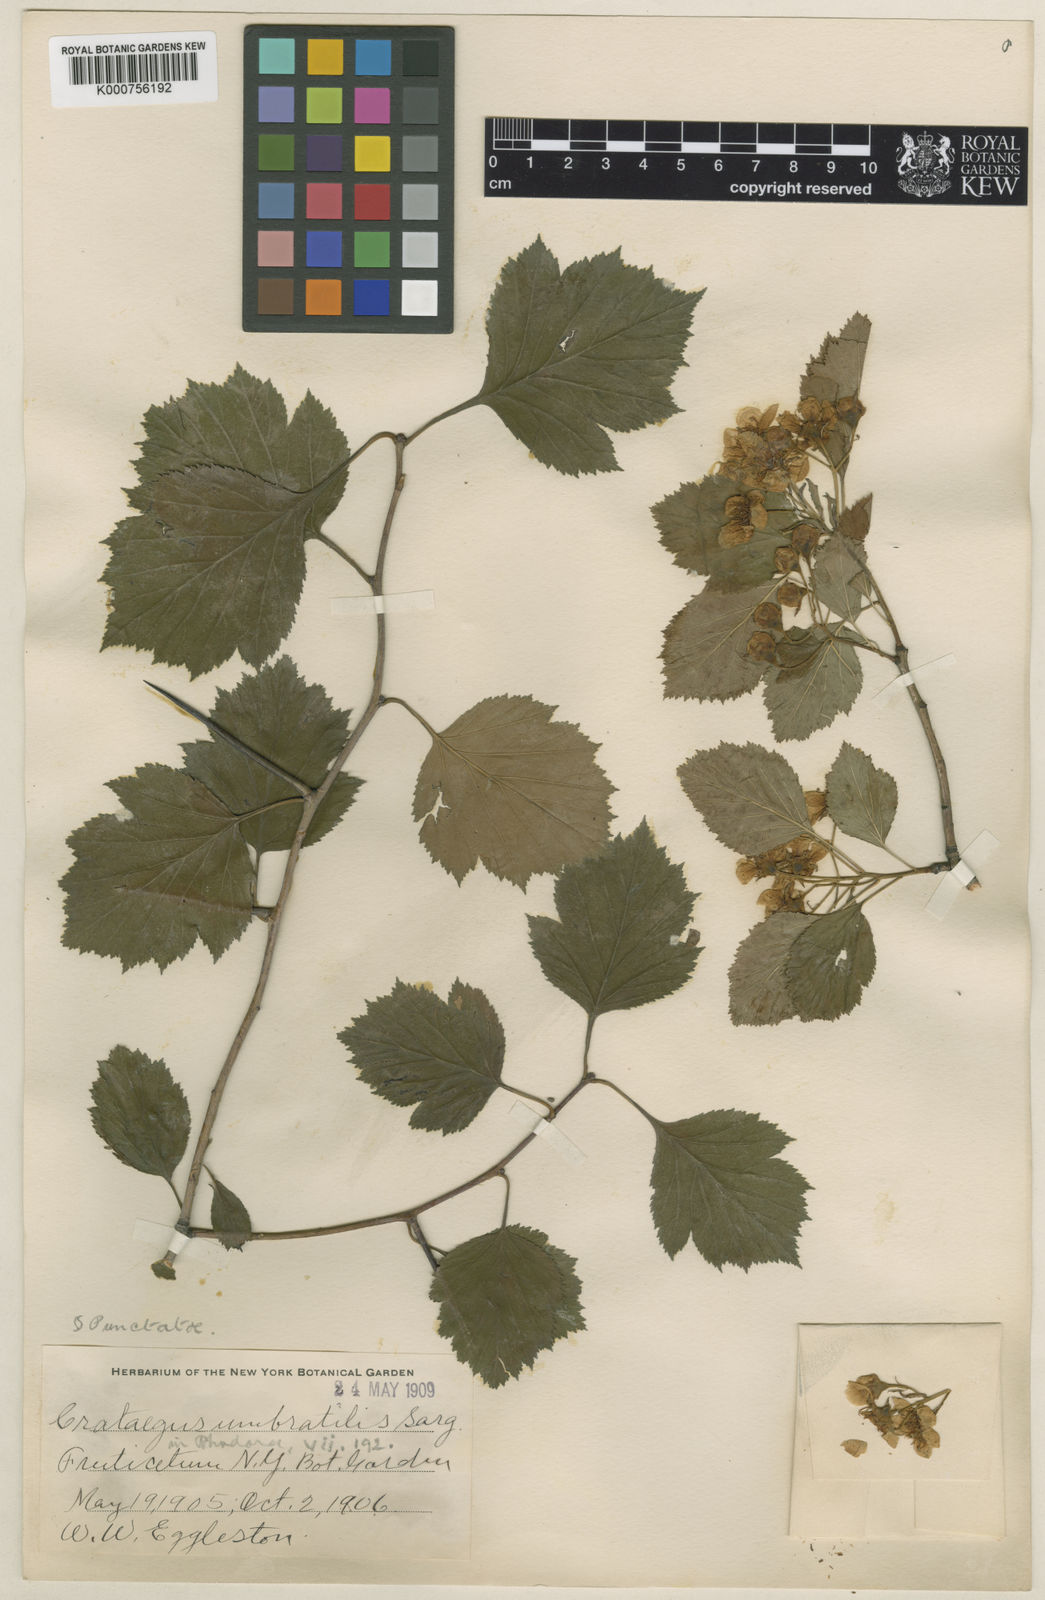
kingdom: Plantae
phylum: Tracheophyta
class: Magnoliopsida
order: Rosales
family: Rosaceae
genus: Crataegus
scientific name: Crataegus
